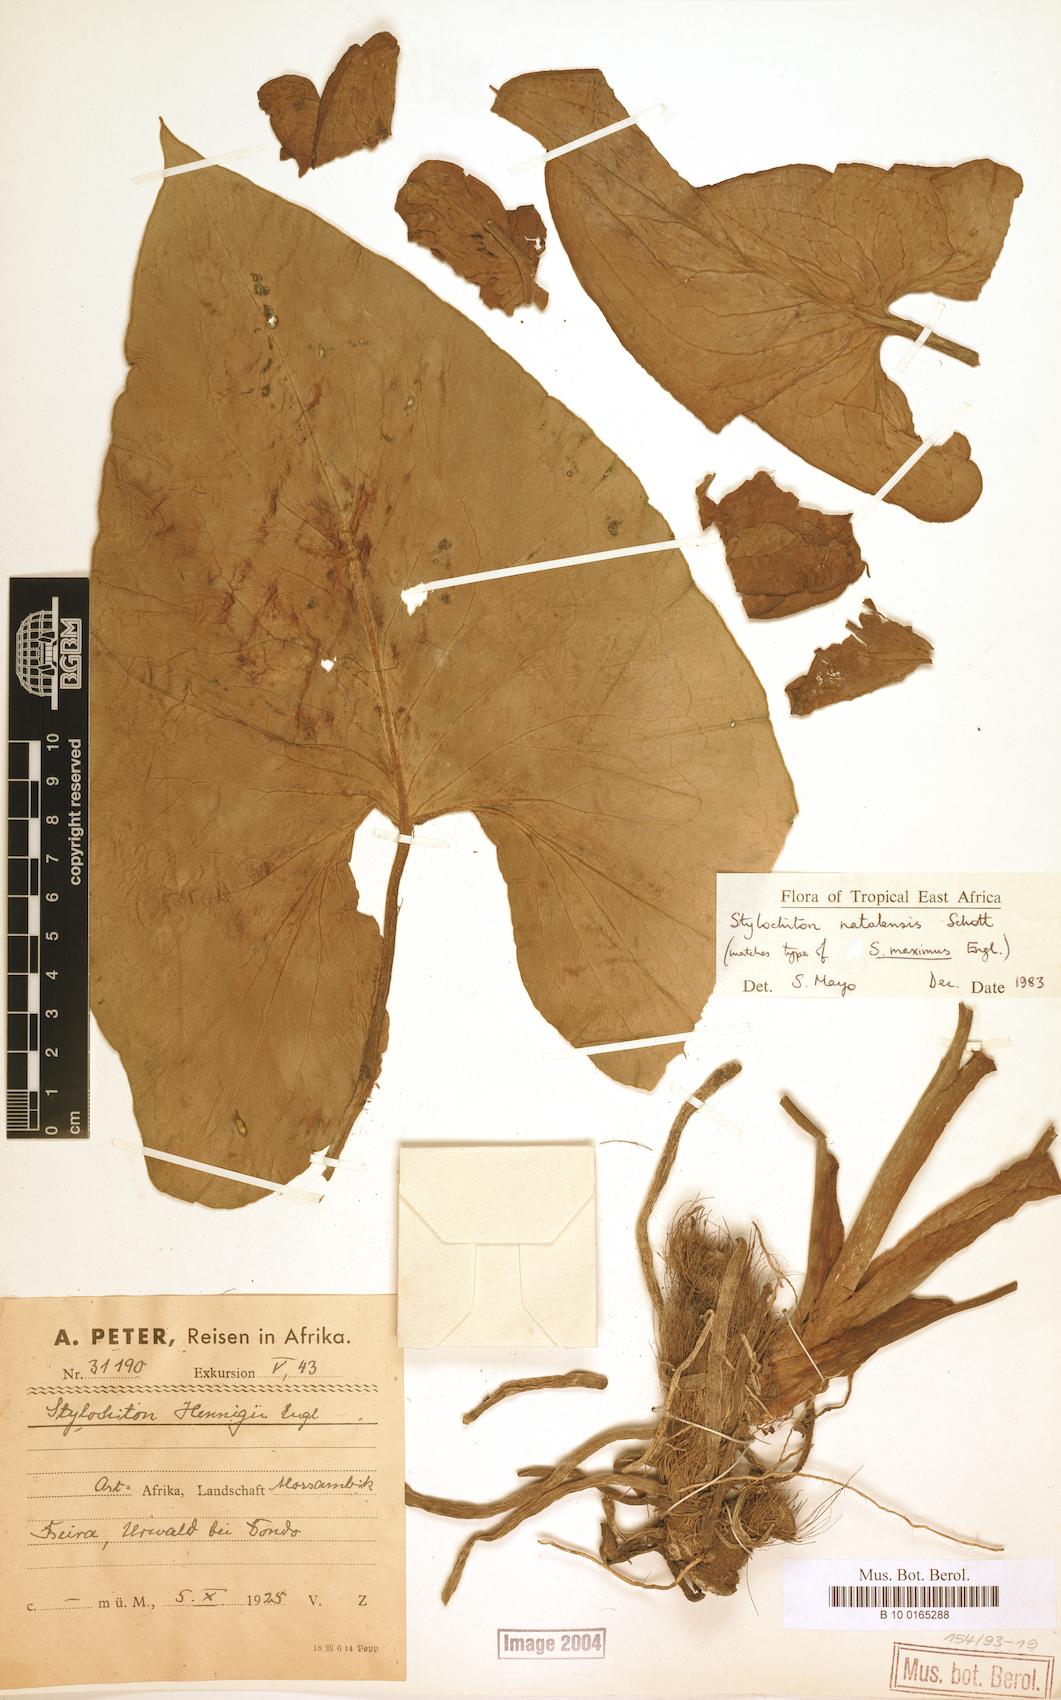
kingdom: Plantae
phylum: Tracheophyta
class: Liliopsida
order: Alismatales
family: Araceae
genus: Stylochiton
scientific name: Stylochiton natalensis
